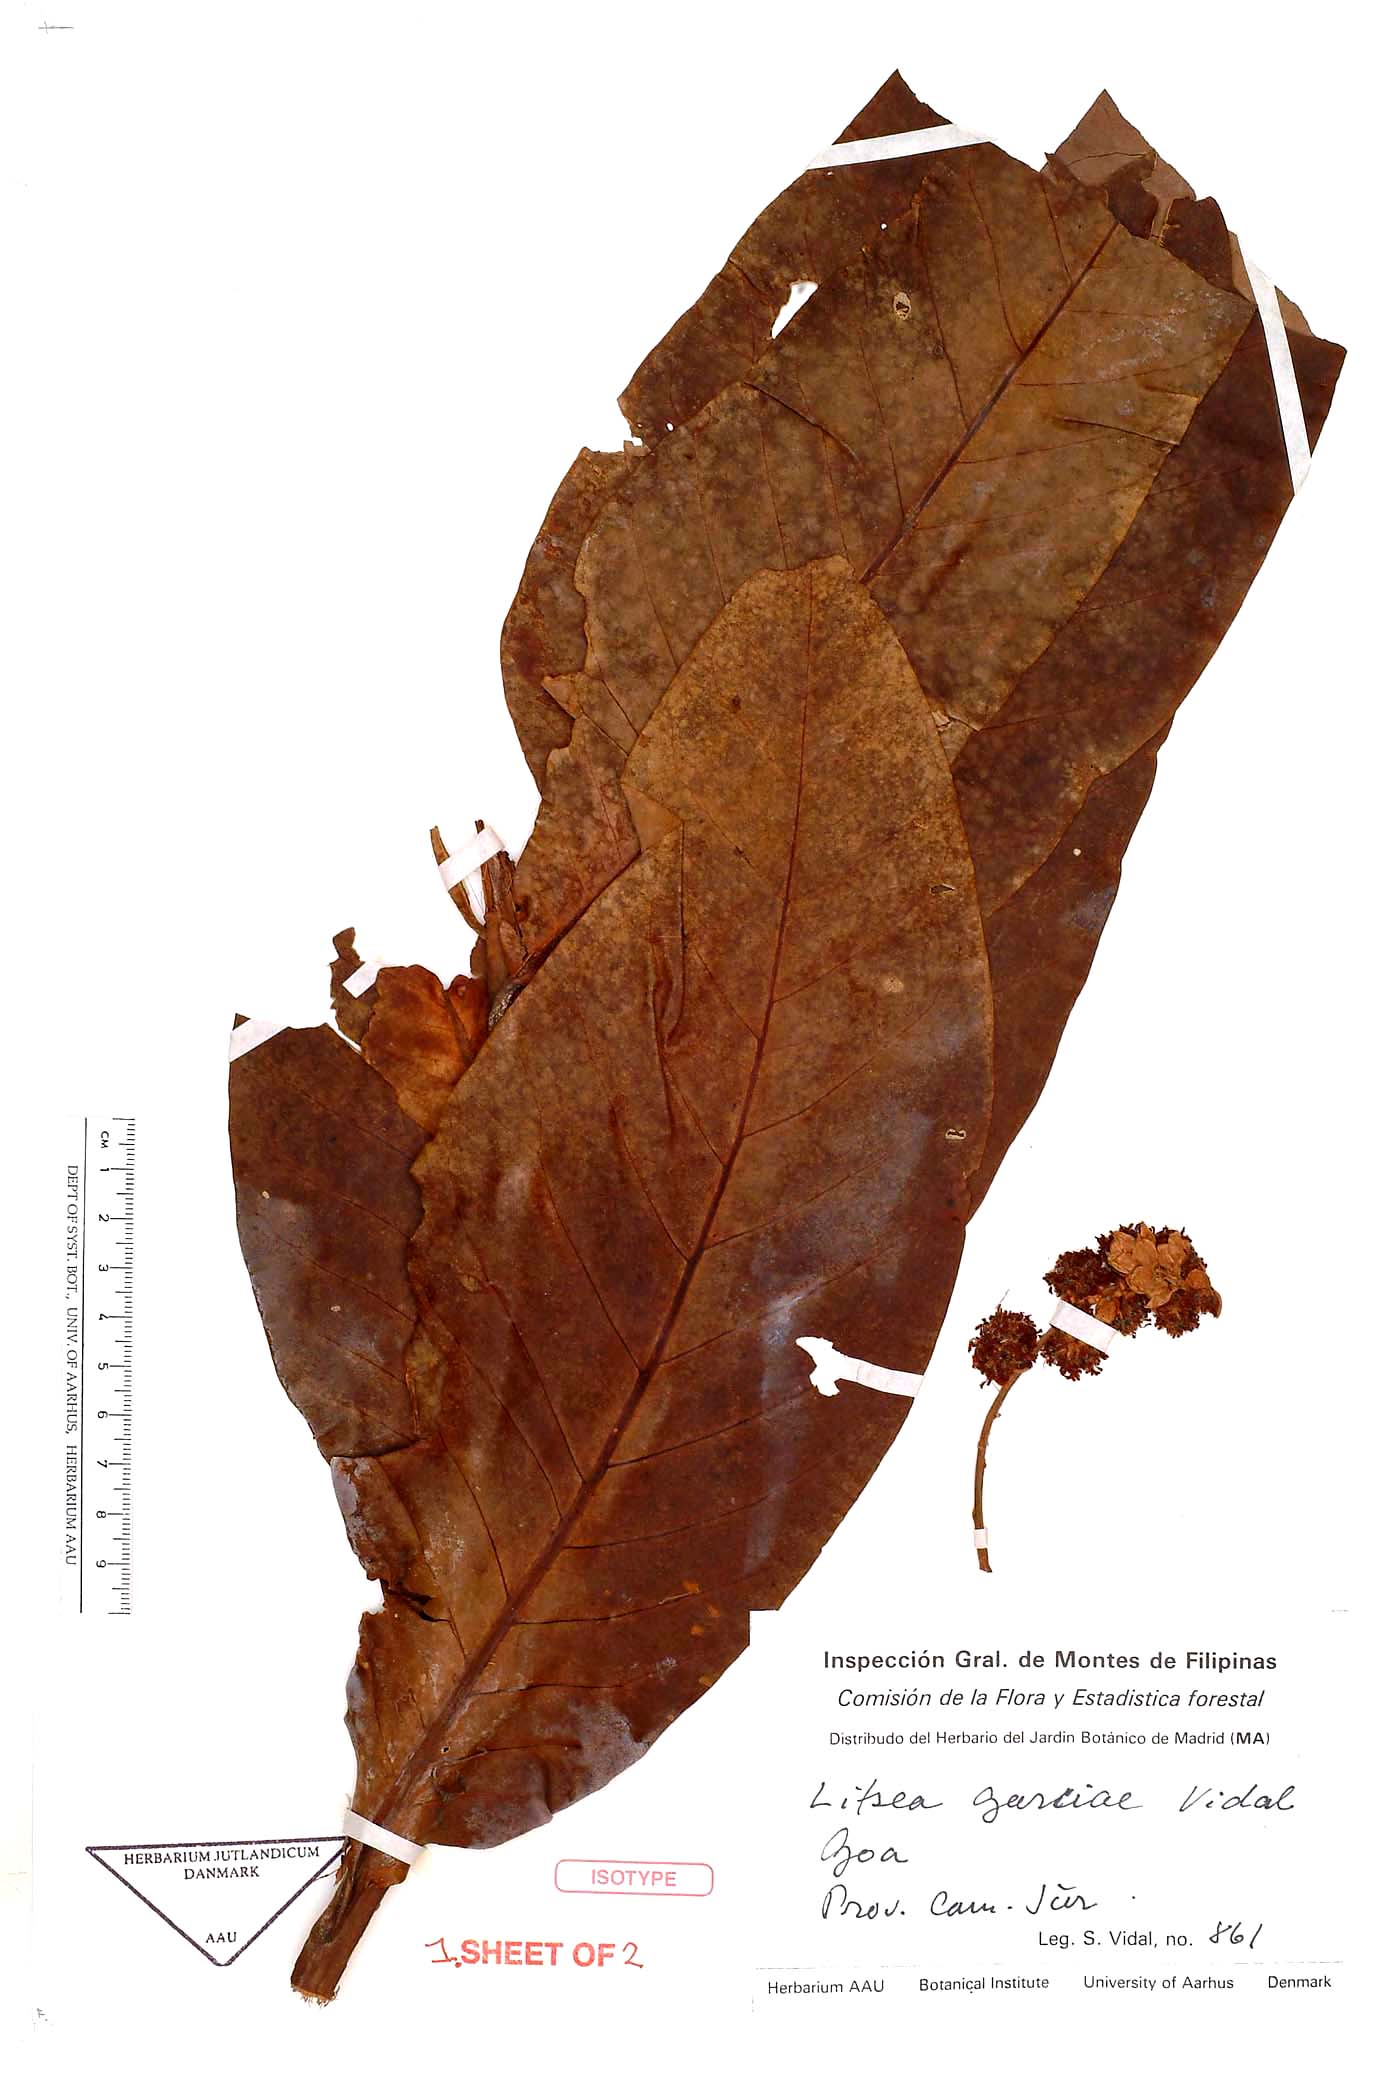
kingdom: Plantae
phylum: Tracheophyta
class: Magnoliopsida
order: Laurales
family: Lauraceae
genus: Litsea
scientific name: Litsea garciae
